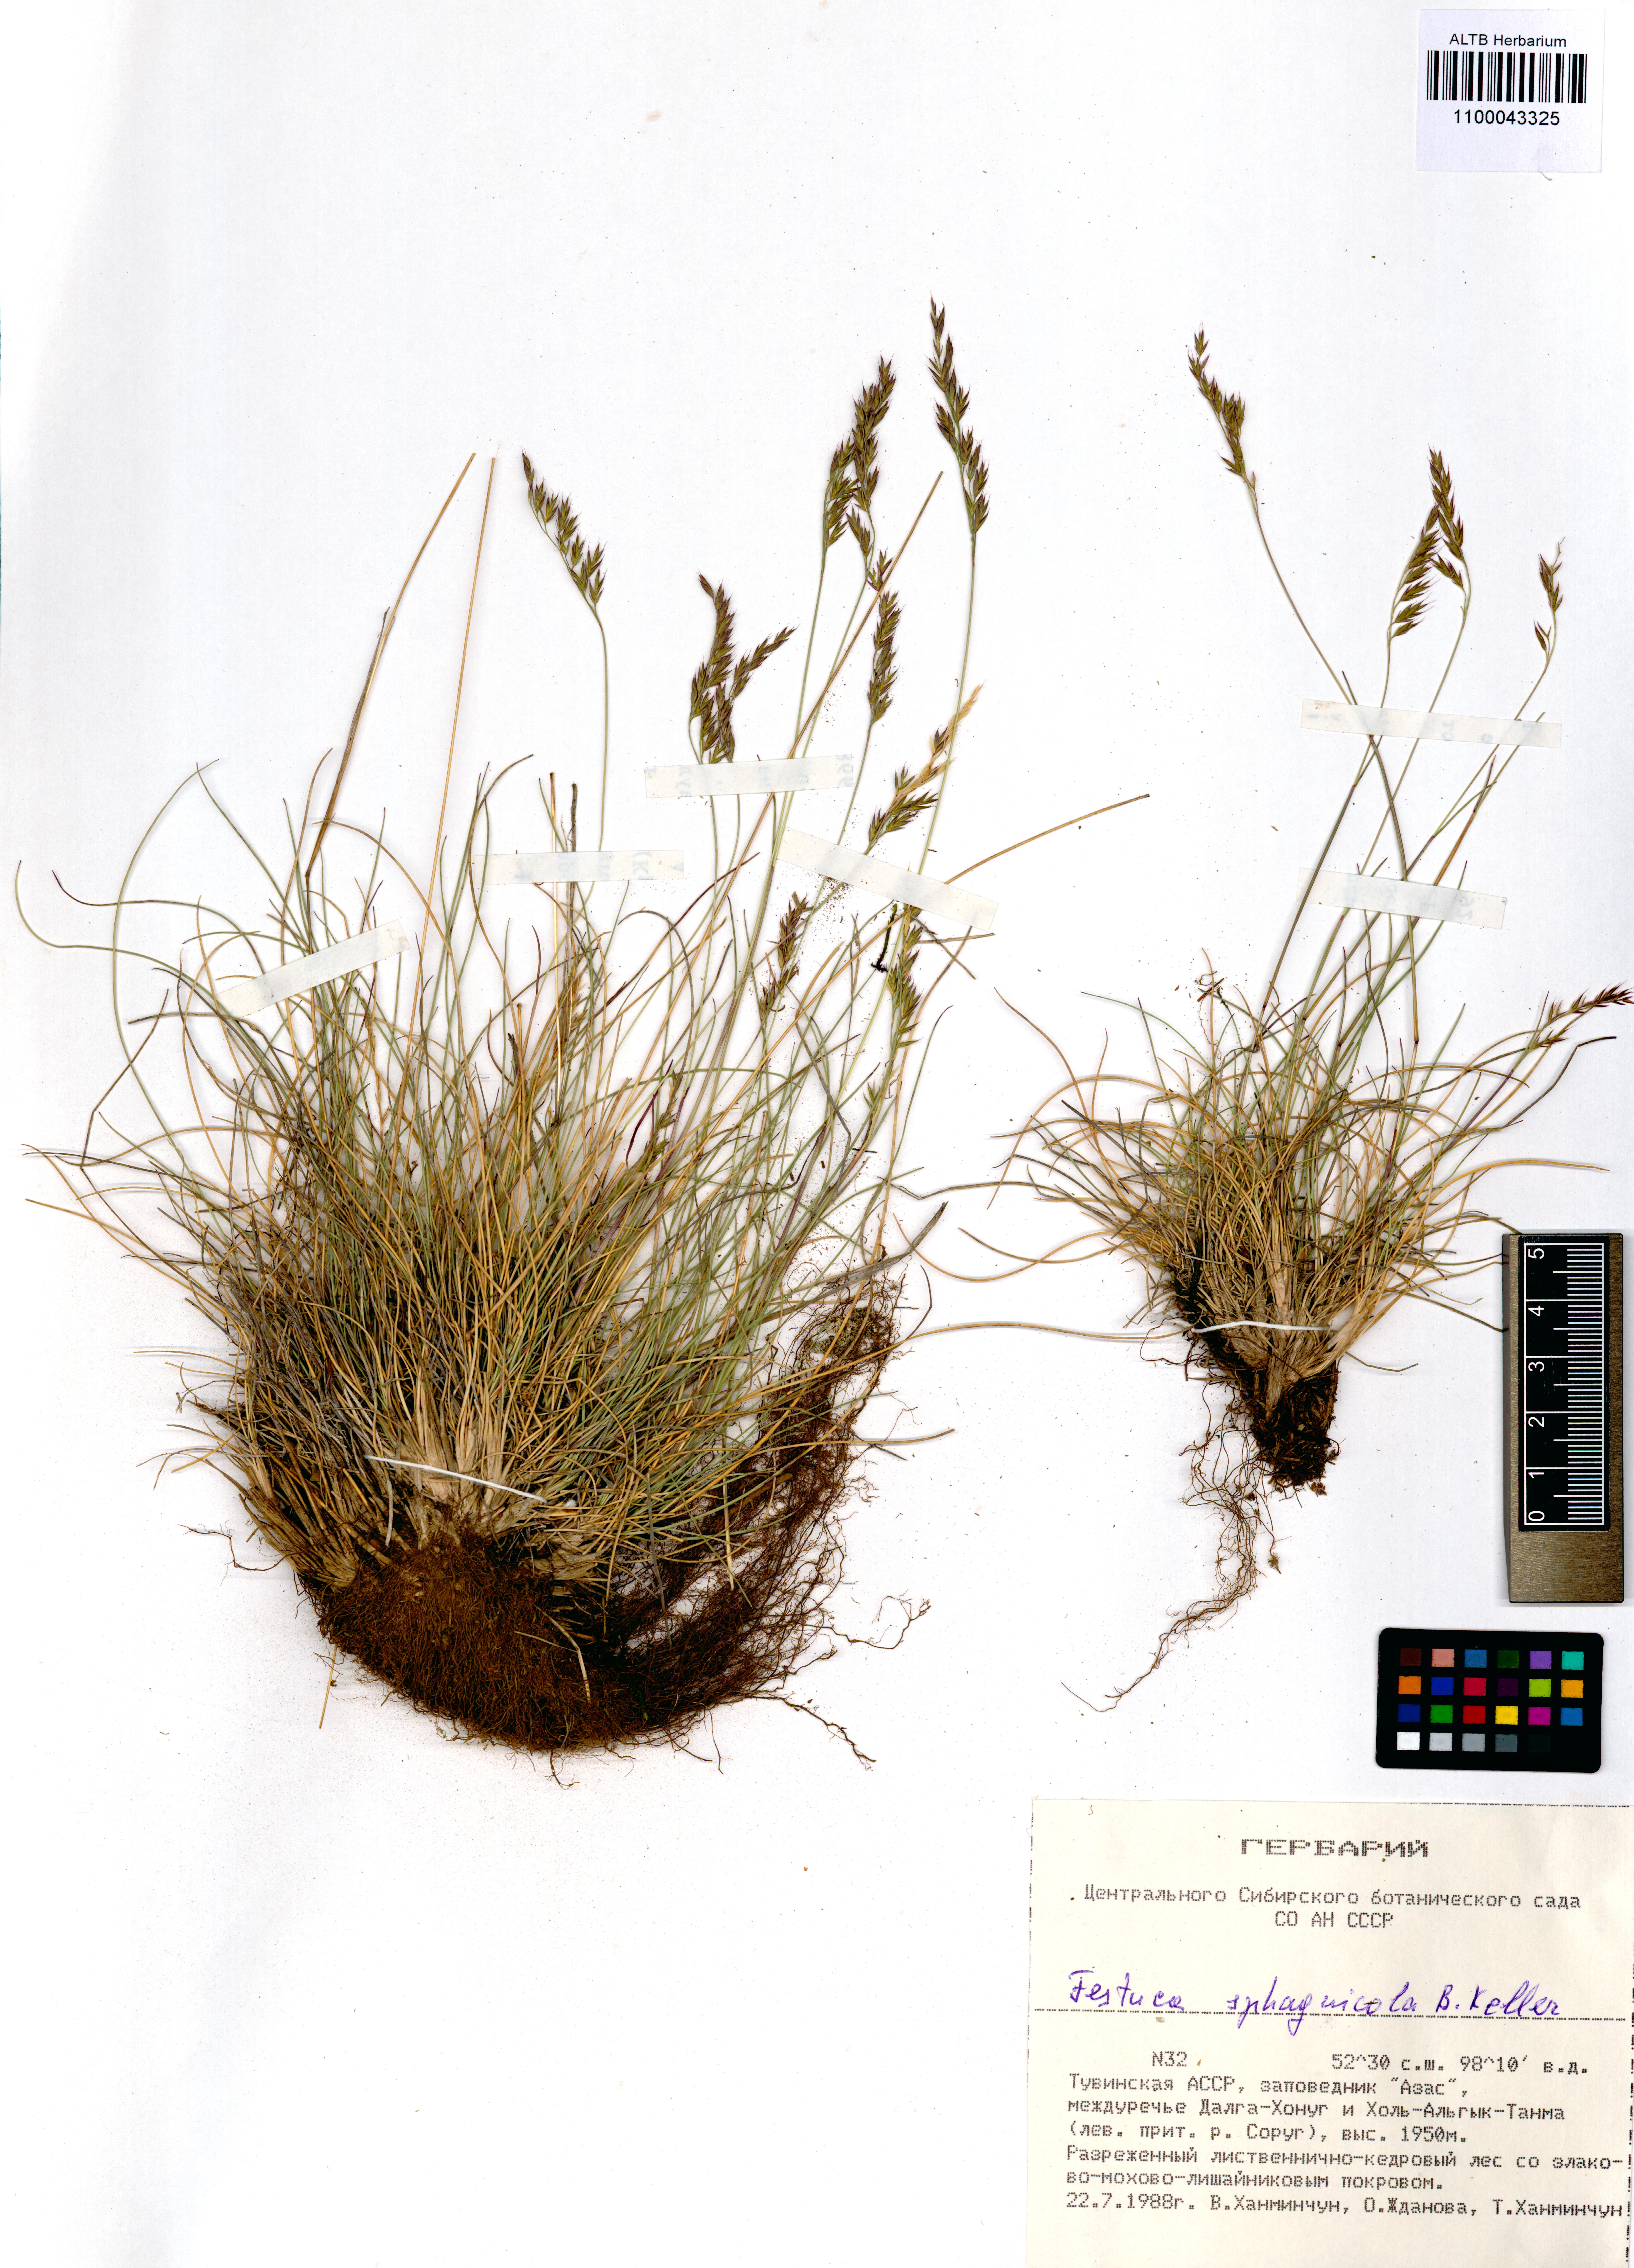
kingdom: Plantae
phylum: Tracheophyta
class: Liliopsida
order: Poales
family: Poaceae
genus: Festuca
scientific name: Festuca
